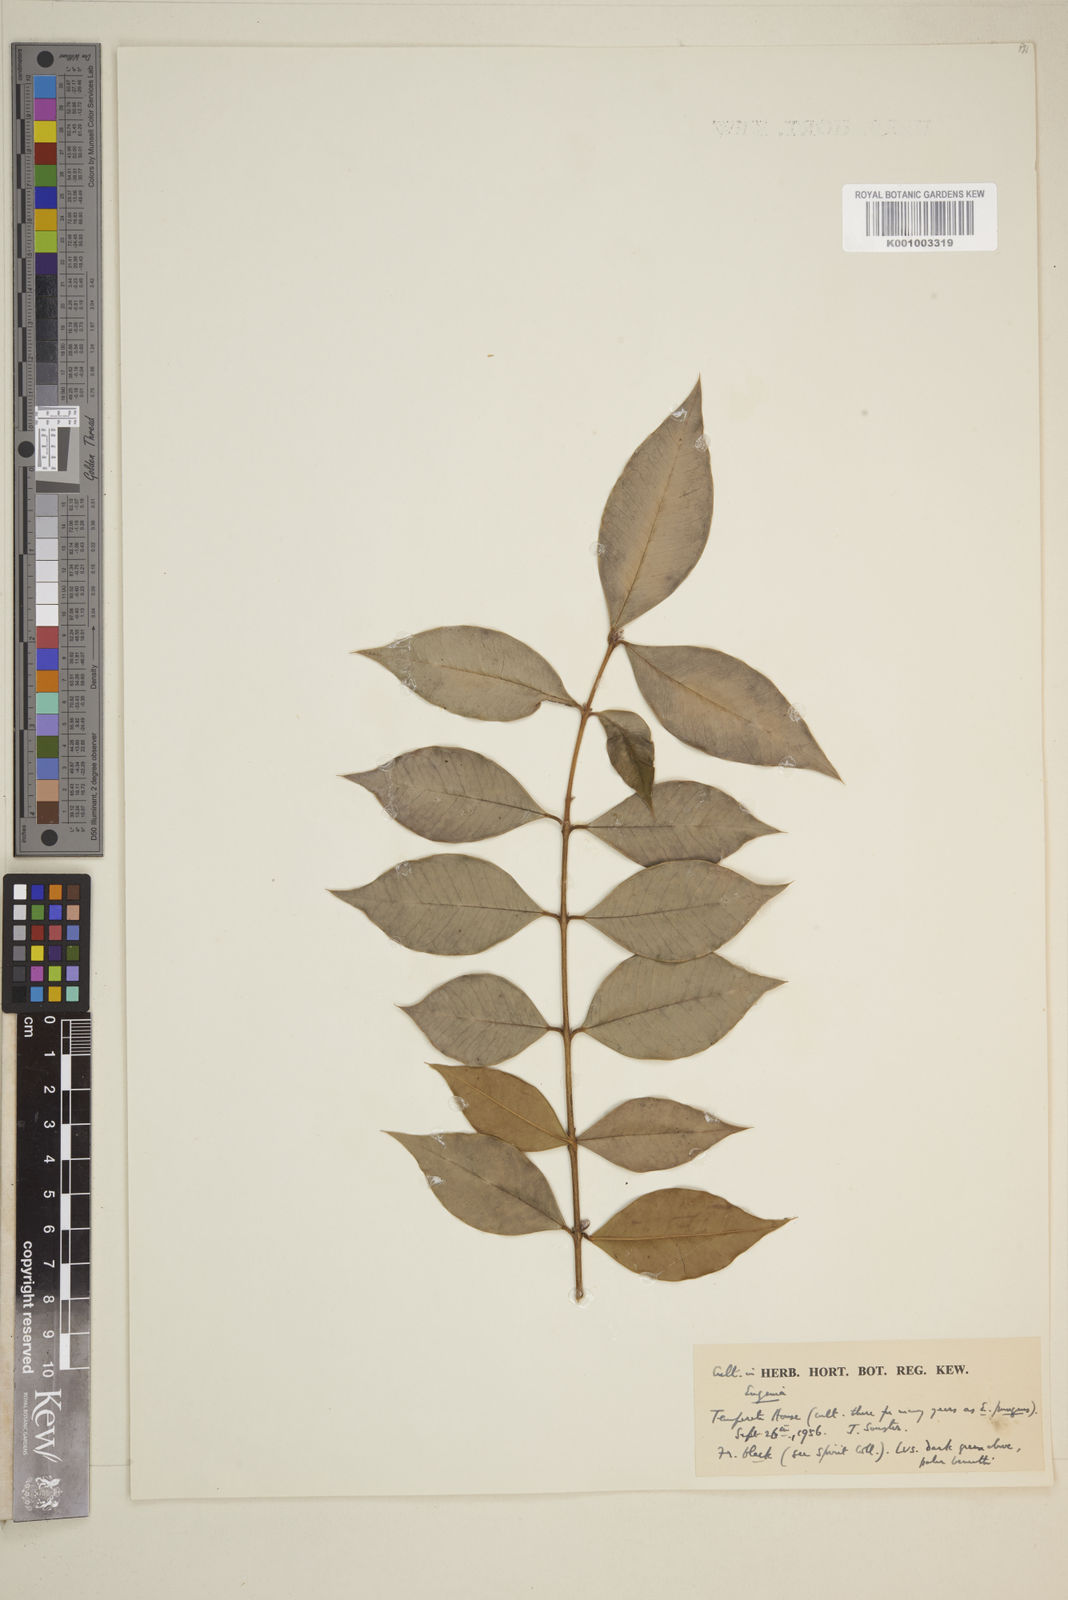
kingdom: Plantae
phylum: Tracheophyta
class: Magnoliopsida
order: Myrtales
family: Myrtaceae
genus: Eugenia
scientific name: Eugenia
